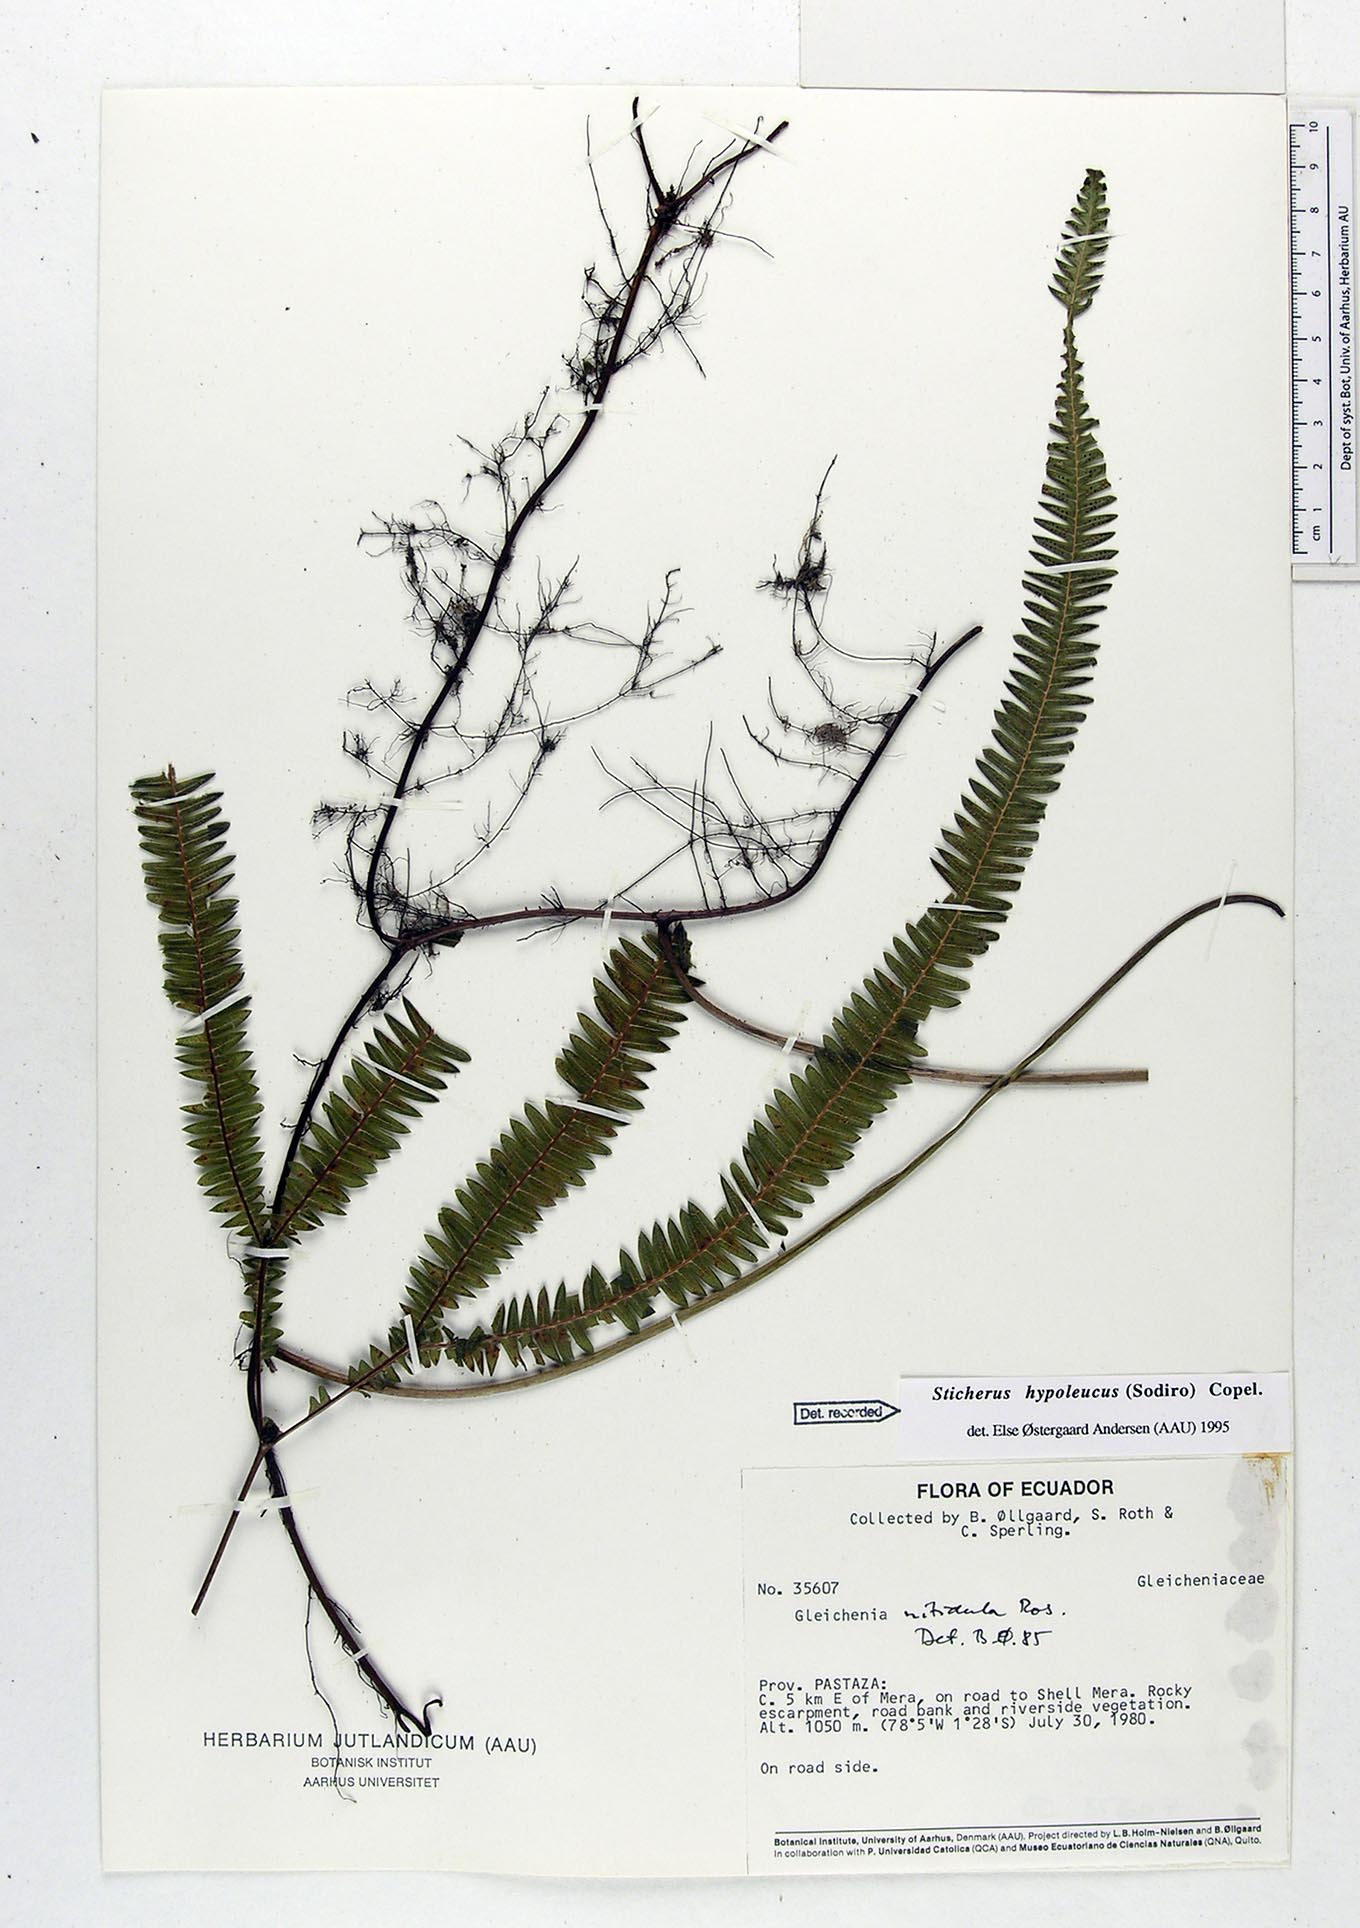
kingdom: Plantae
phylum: Tracheophyta
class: Polypodiopsida
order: Gleicheniales
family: Gleicheniaceae
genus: Sticherus
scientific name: Sticherus hypoleucus
